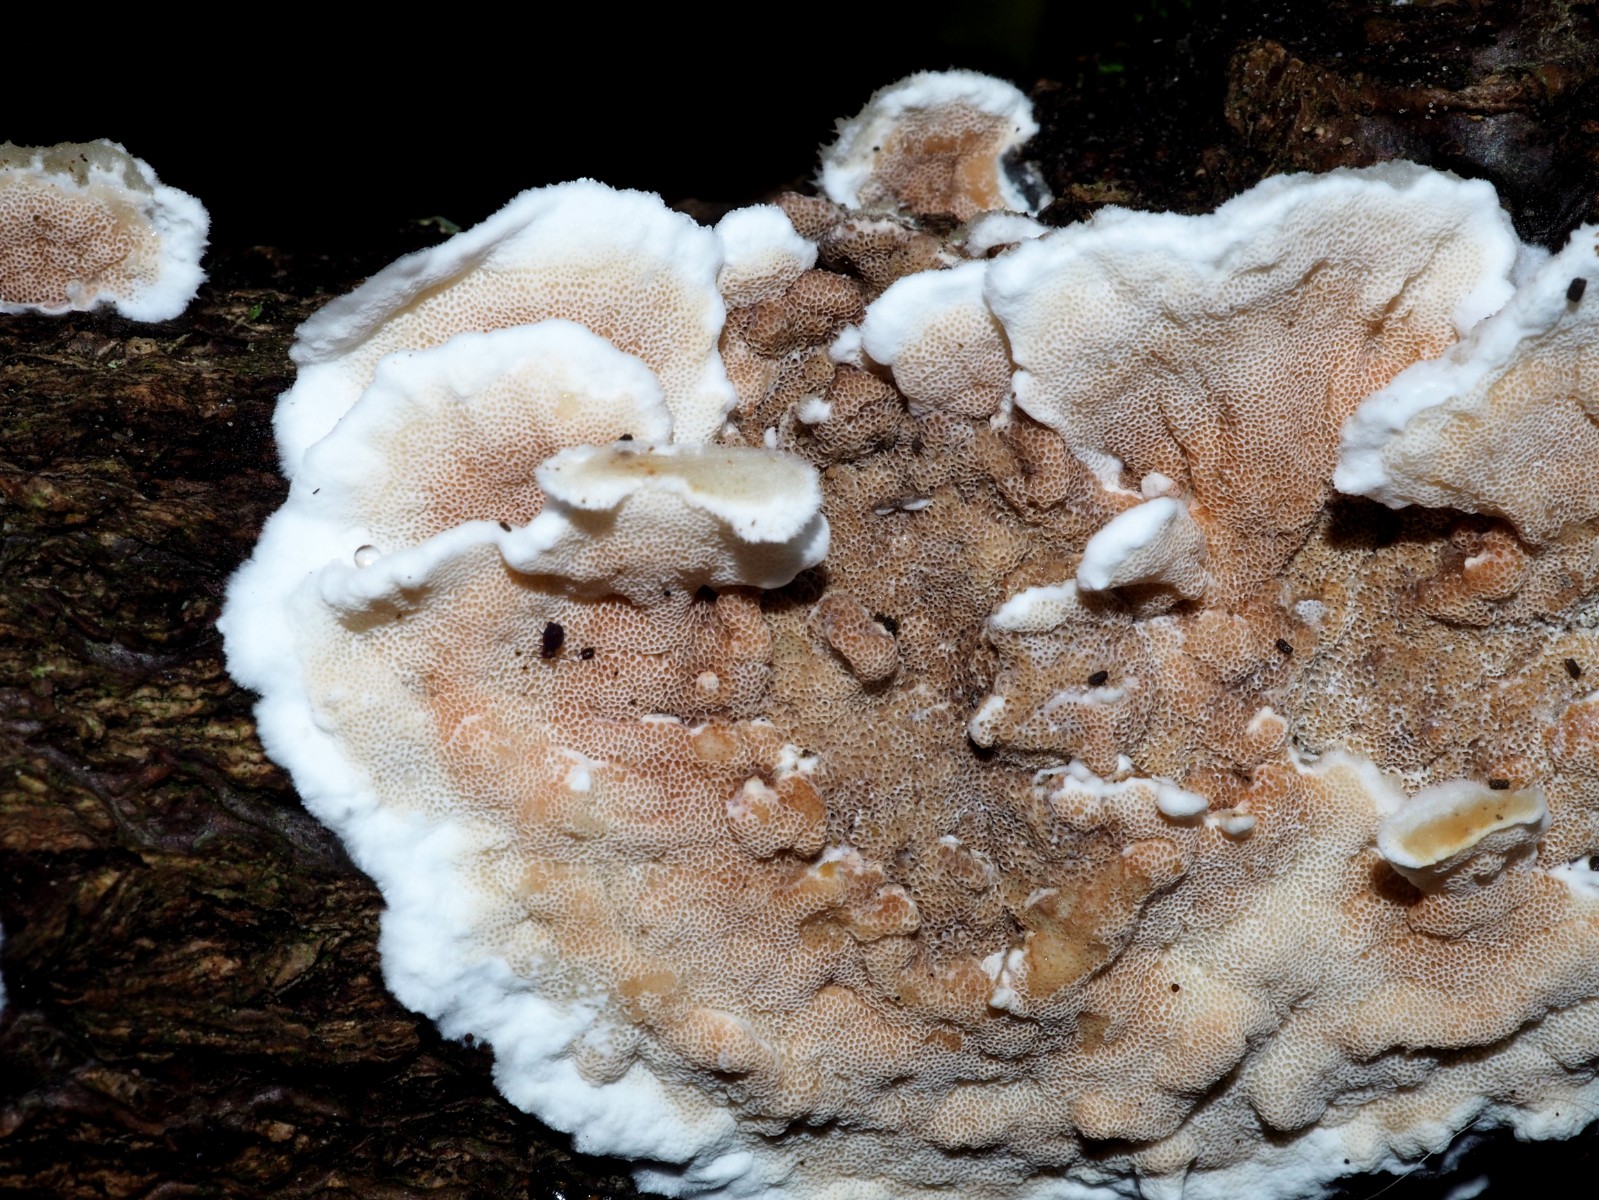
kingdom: Fungi
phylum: Basidiomycota
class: Agaricomycetes
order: Polyporales
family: Irpicaceae
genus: Vitreoporus
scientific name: Vitreoporus dichrous
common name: tofarvet foldporesvamp
